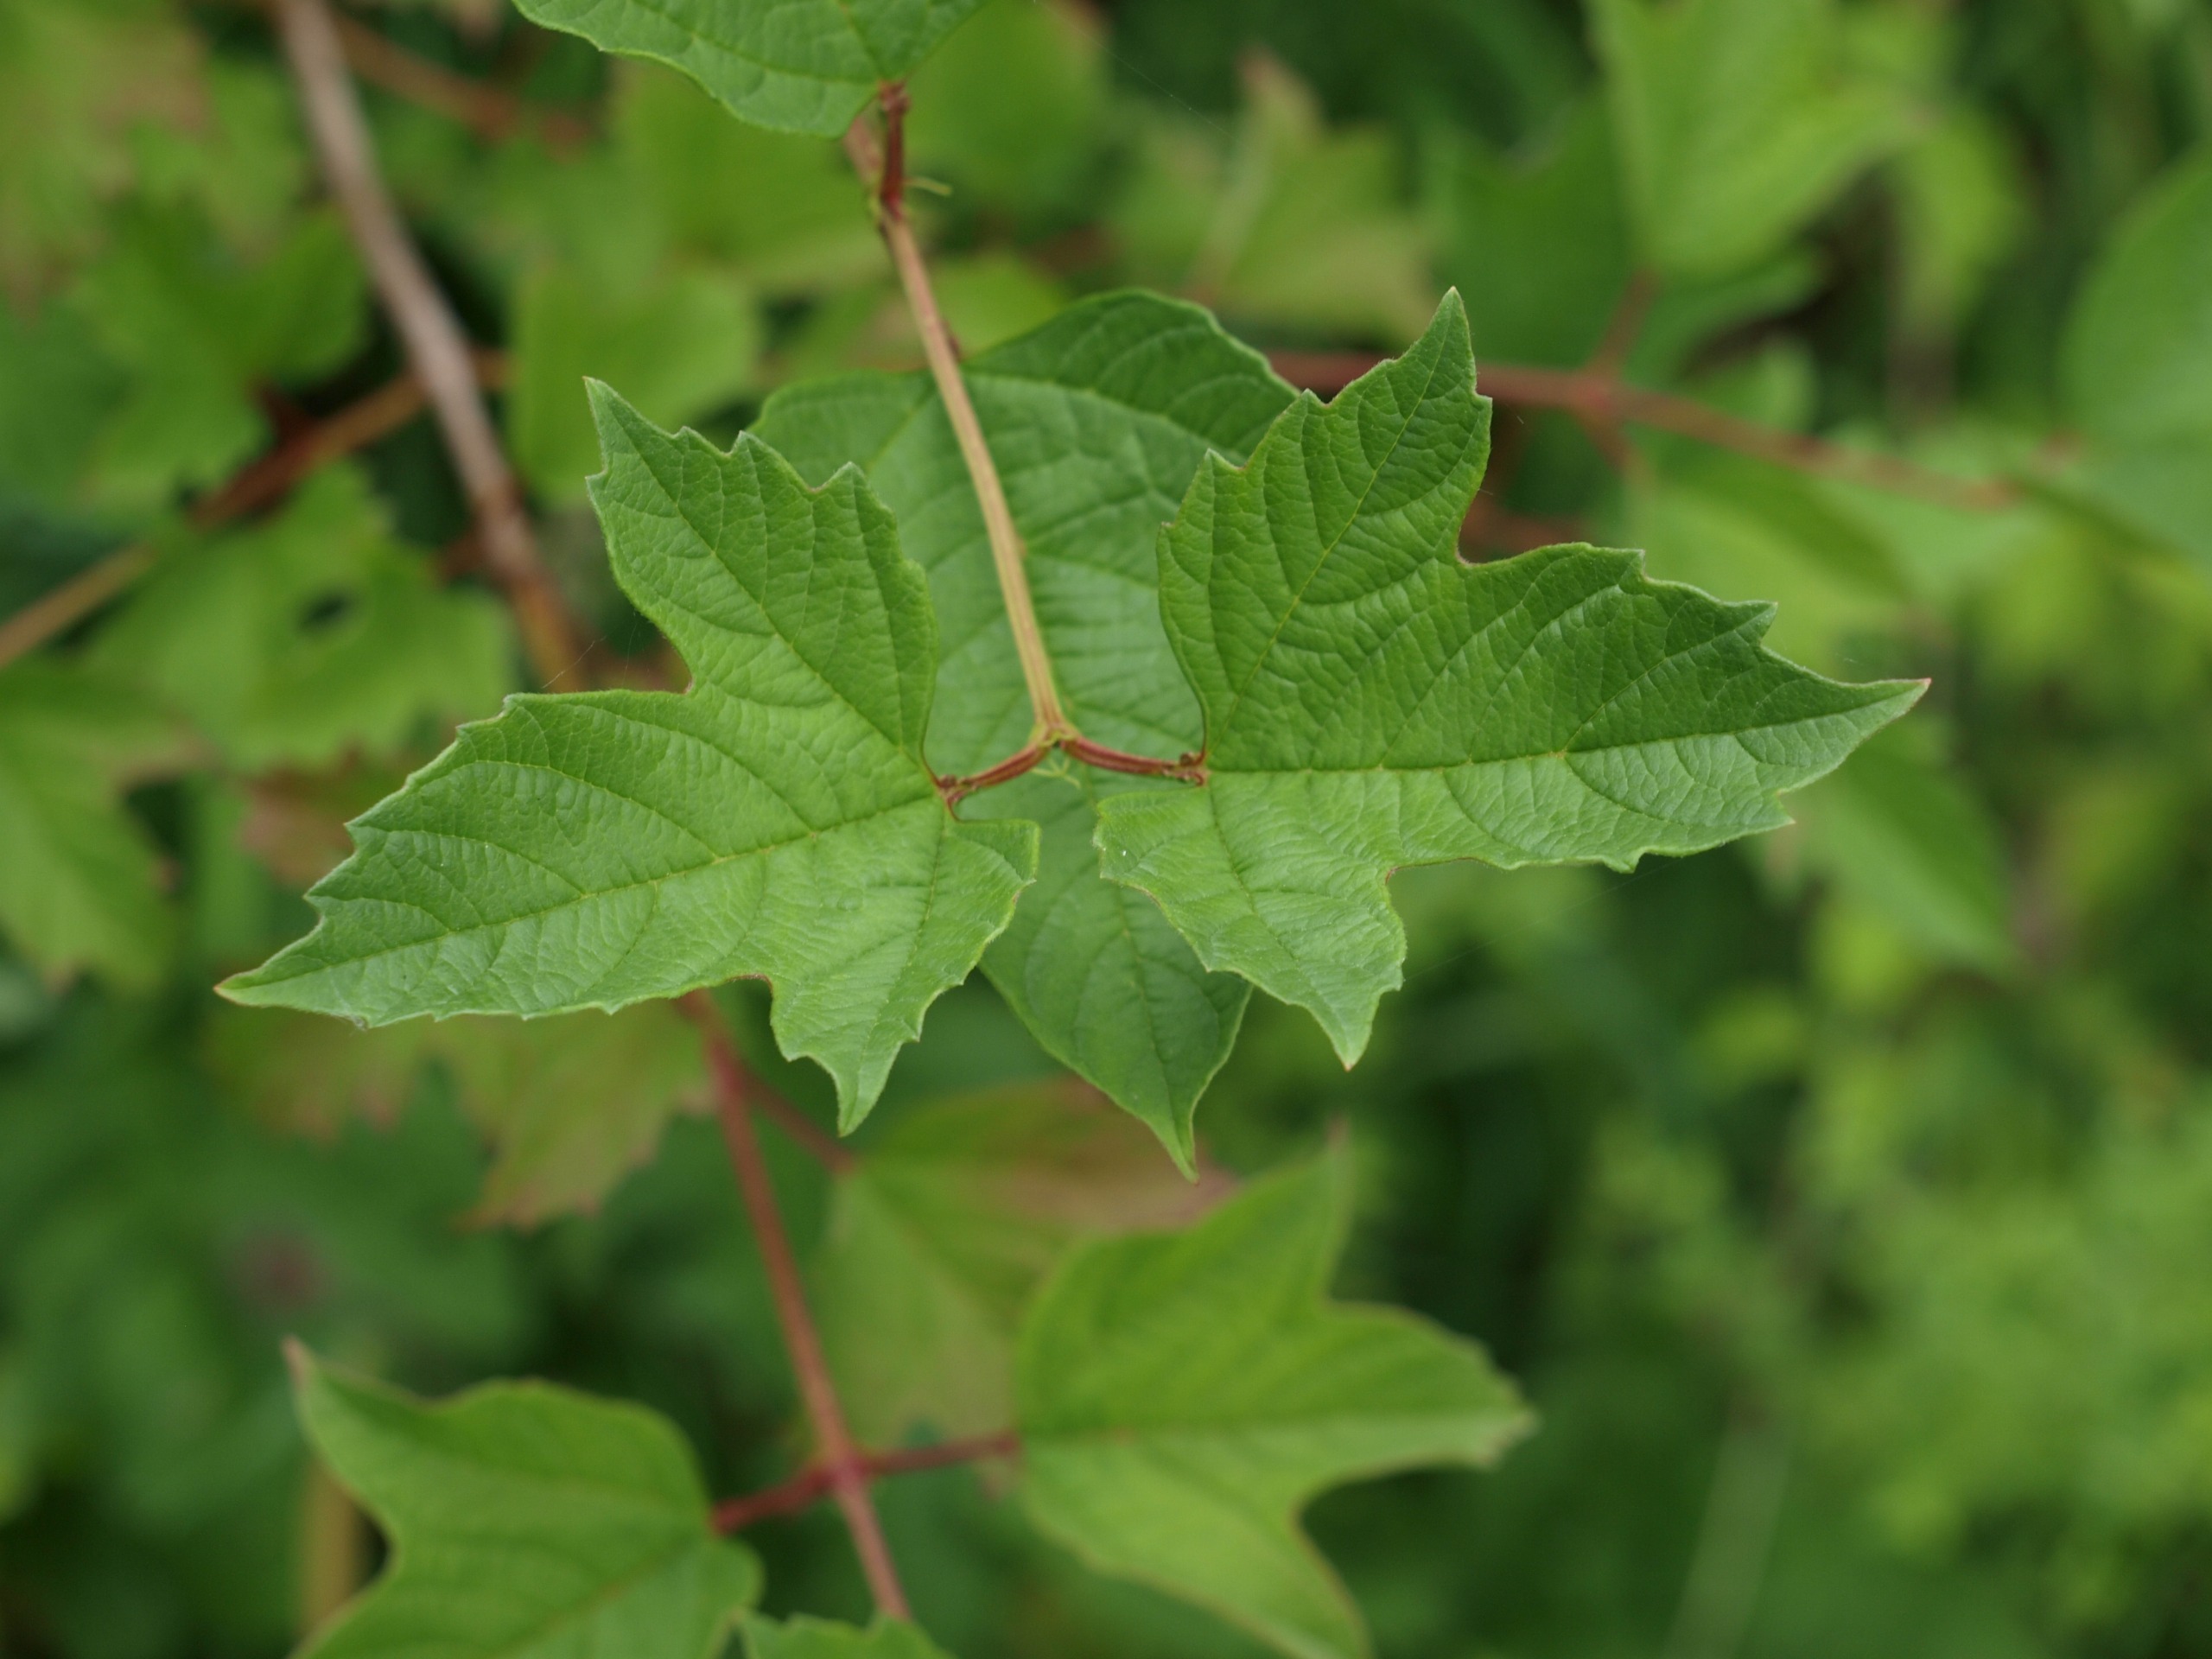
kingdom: Plantae
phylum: Tracheophyta
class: Magnoliopsida
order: Dipsacales
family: Viburnaceae
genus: Viburnum
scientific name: Viburnum opulus
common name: Kvalkved
